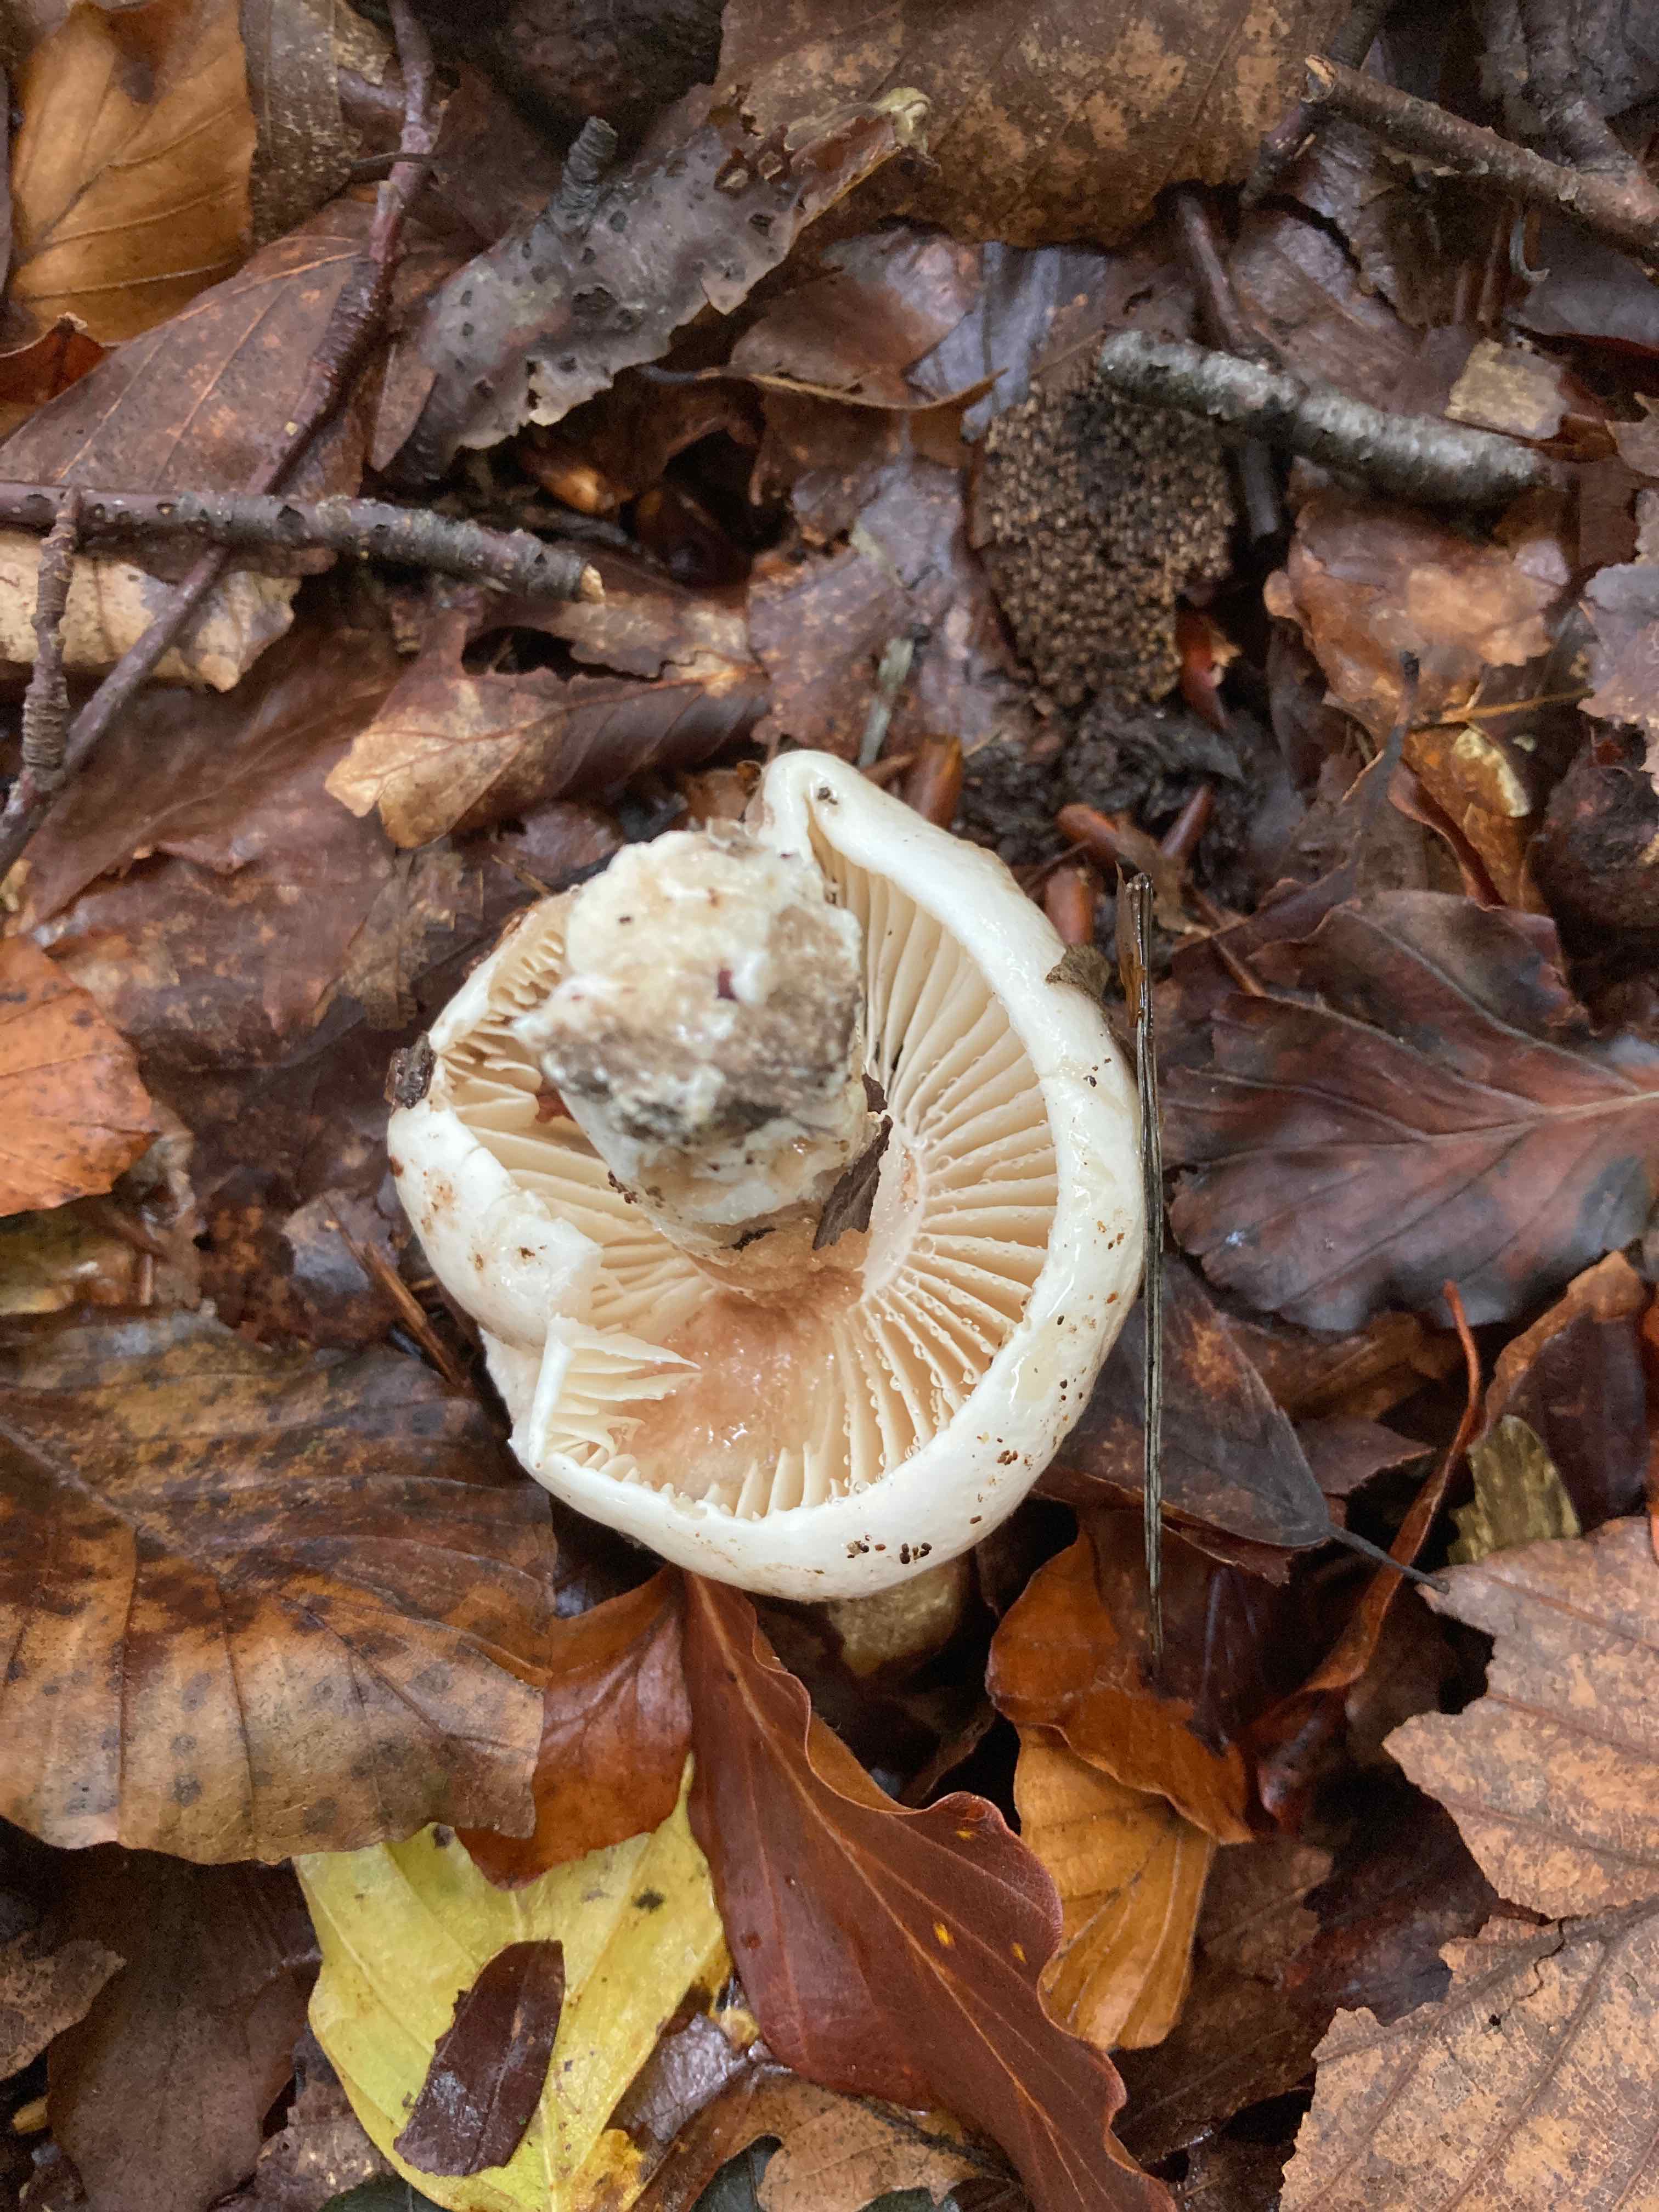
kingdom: Fungi
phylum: Basidiomycota
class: Agaricomycetes
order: Russulales
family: Russulaceae
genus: Russula
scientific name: Russula adusta
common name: sværtende skørhat
